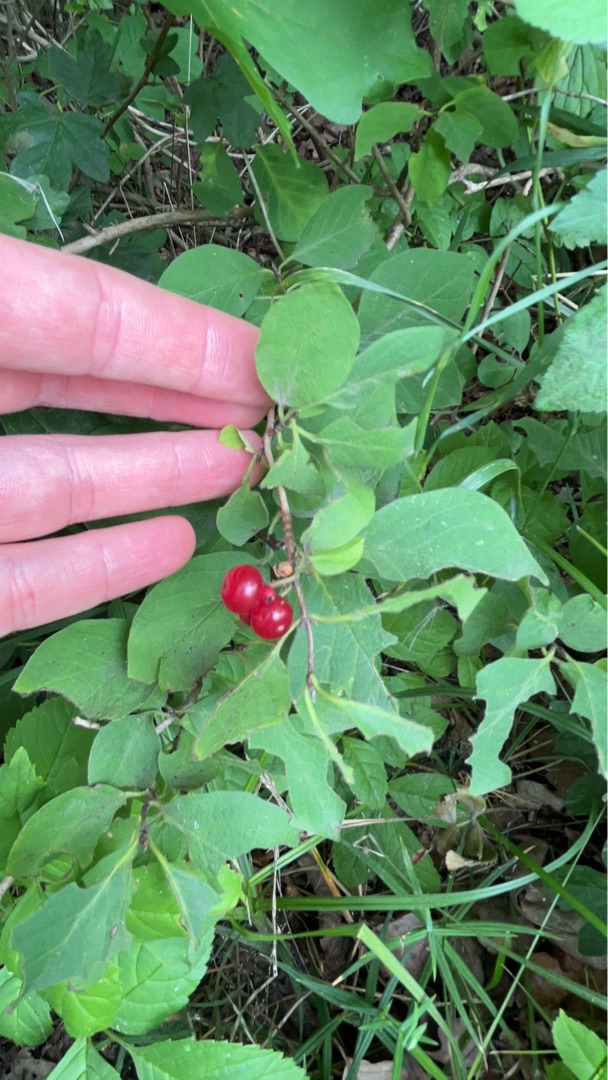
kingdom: Plantae
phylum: Tracheophyta
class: Magnoliopsida
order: Dipsacales
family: Caprifoliaceae
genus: Lonicera
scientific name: Lonicera xylosteum
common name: Dunet gedeblad
